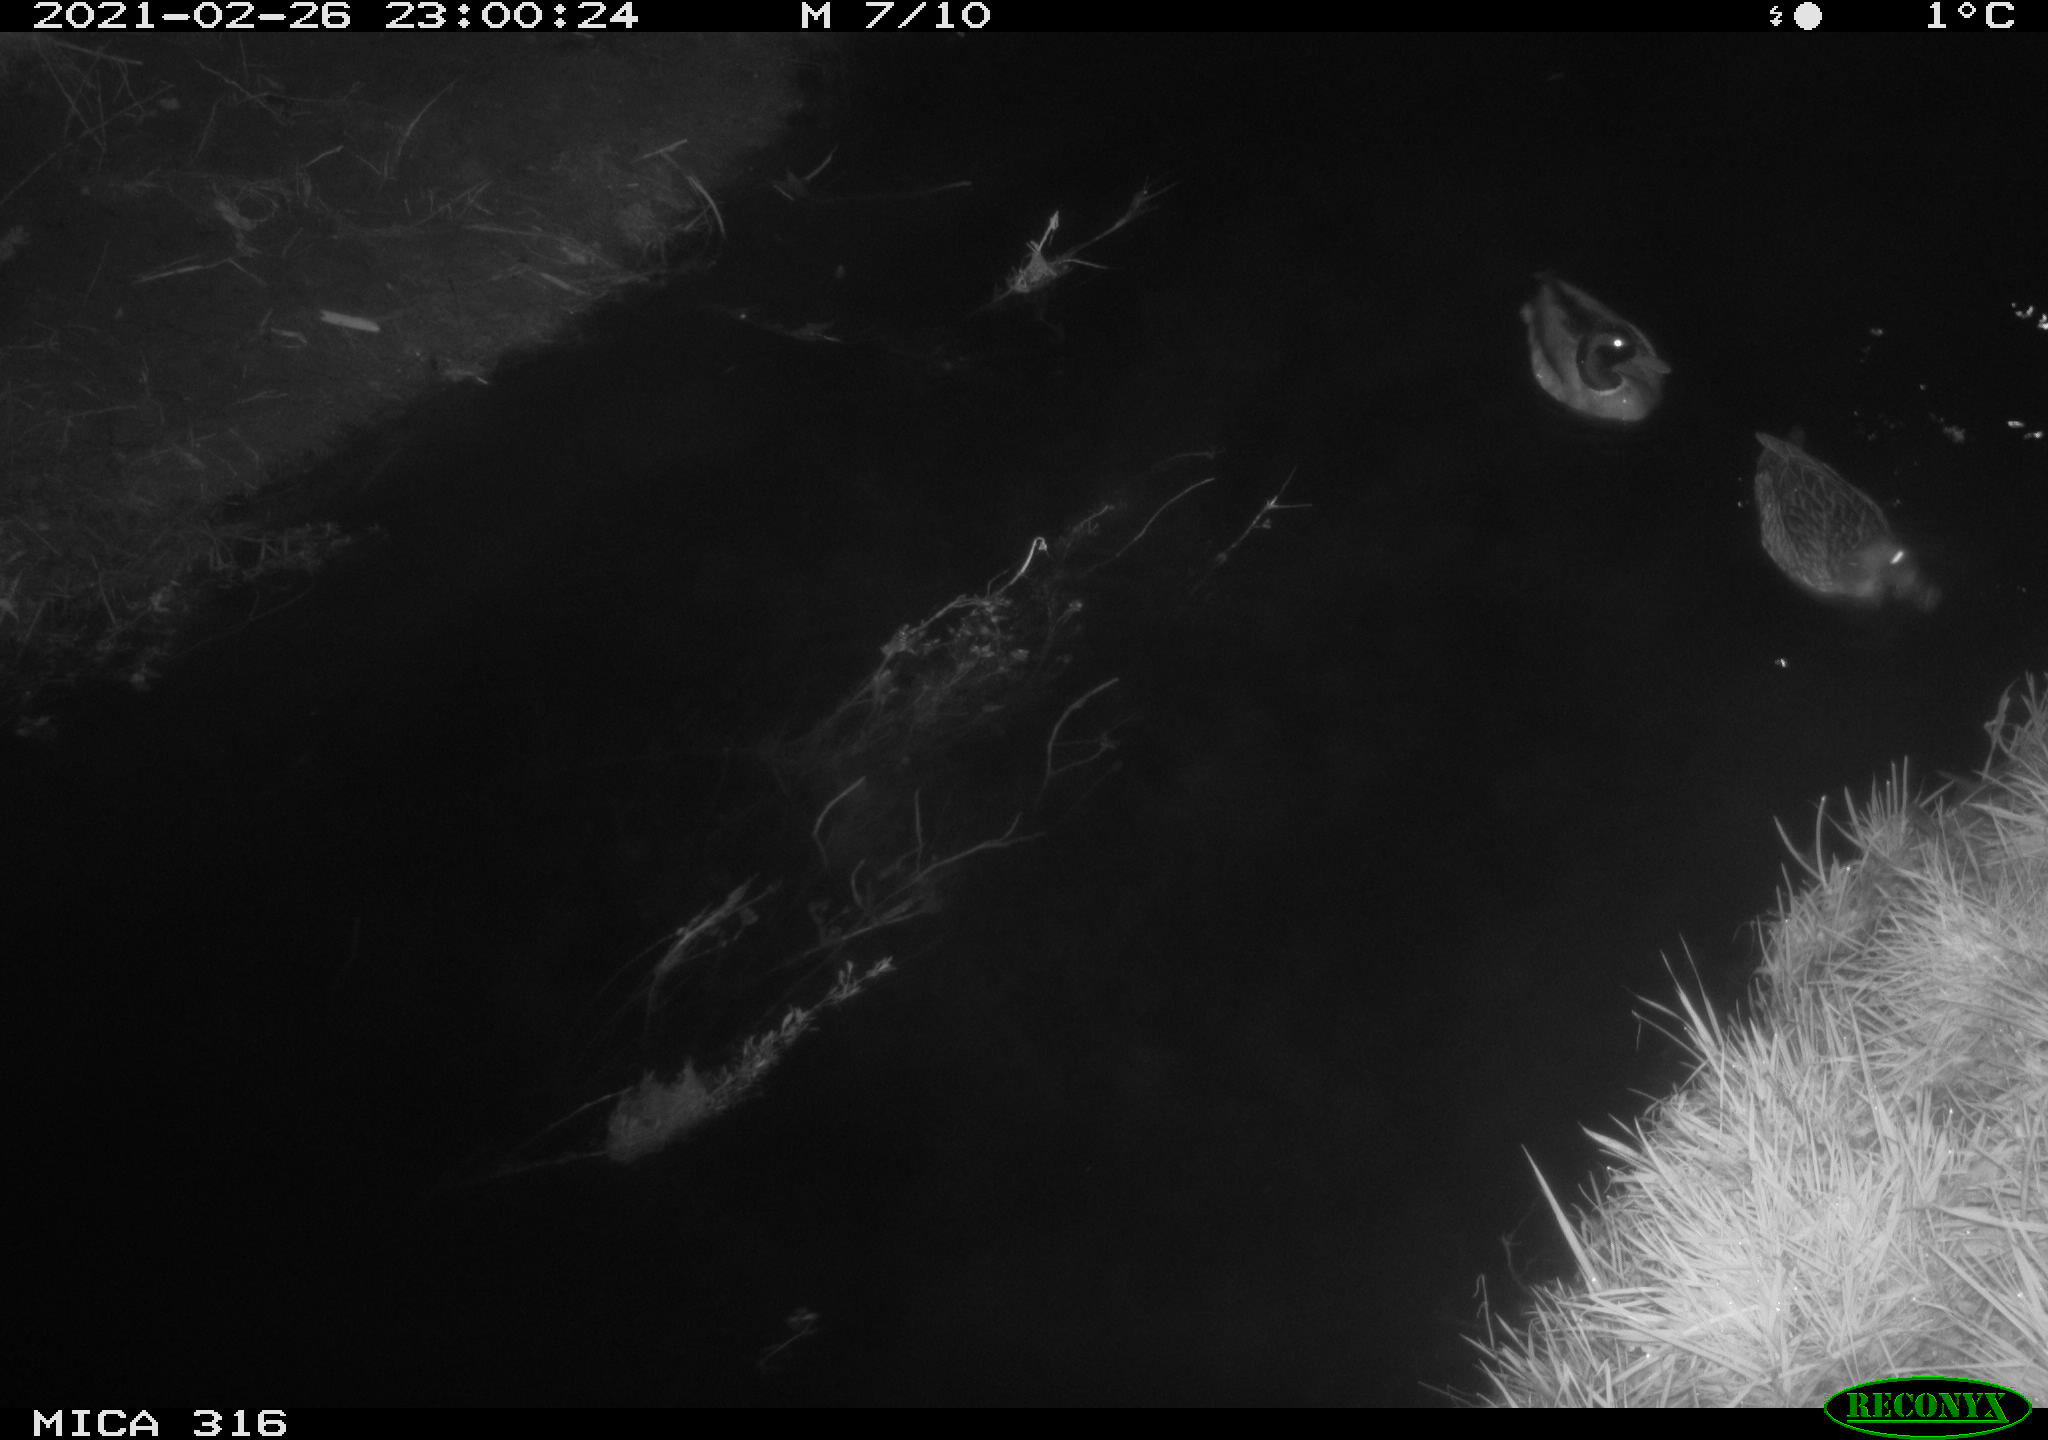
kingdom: Animalia
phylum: Chordata
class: Aves
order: Anseriformes
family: Anatidae
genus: Anas
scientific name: Anas platyrhynchos
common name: Mallard
